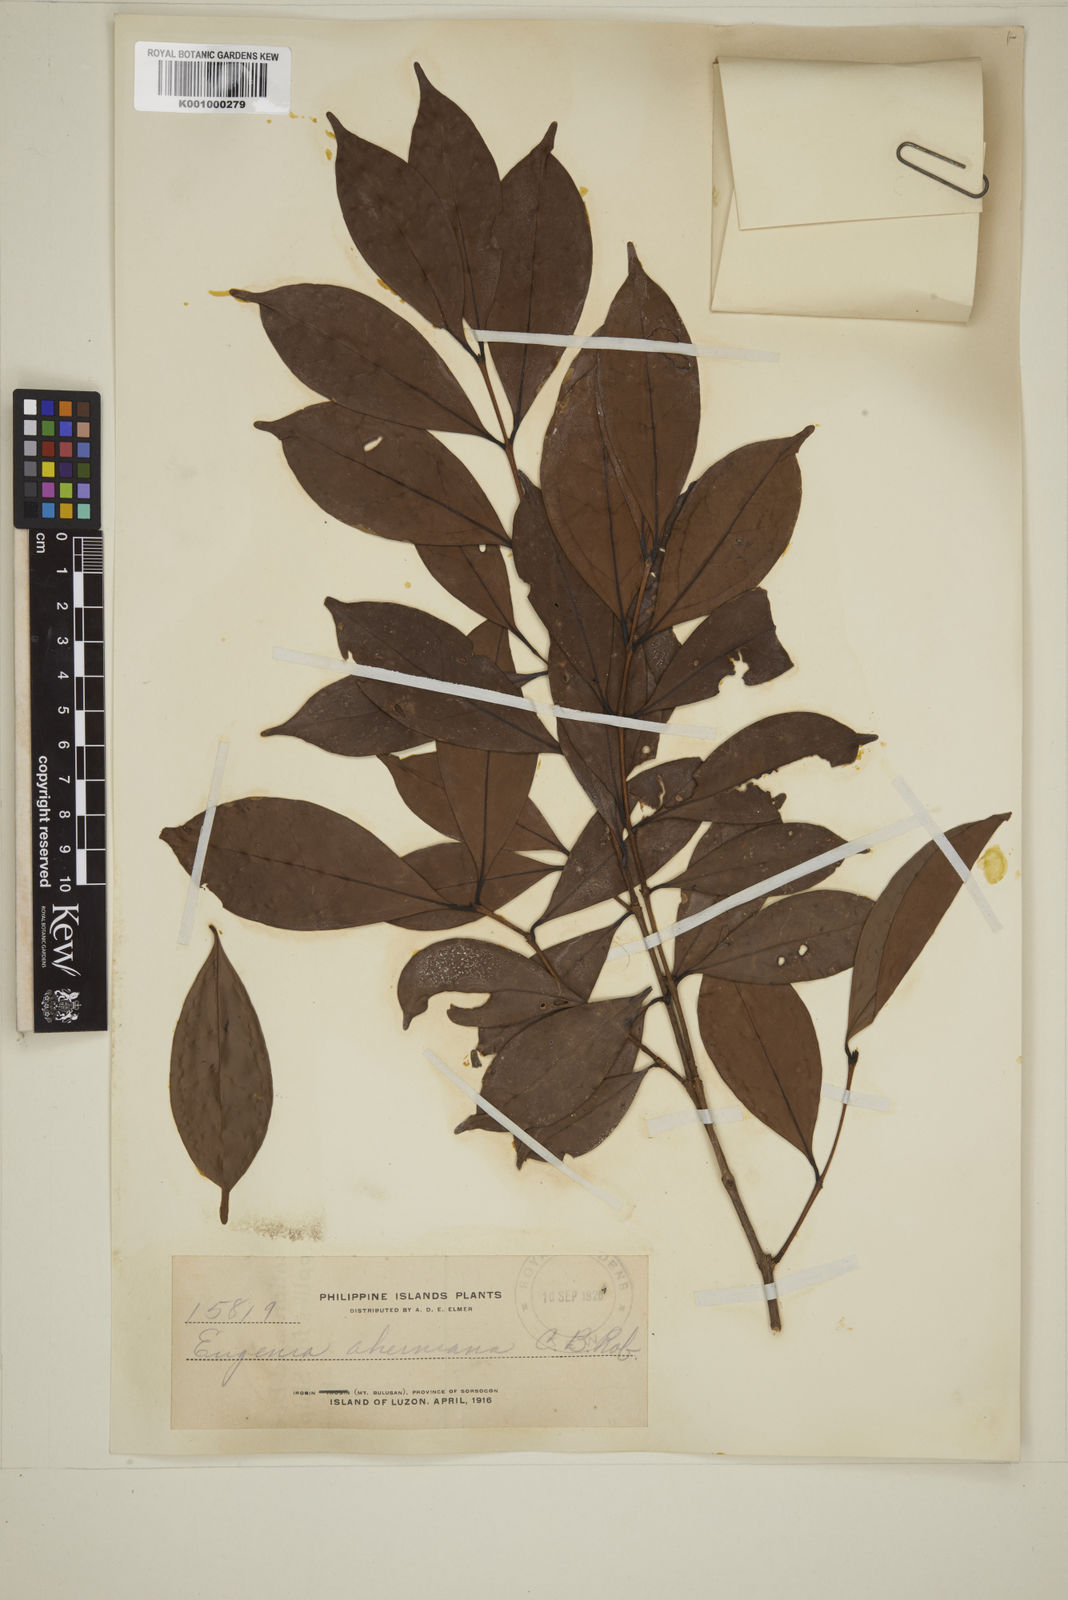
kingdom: Plantae
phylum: Tracheophyta
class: Magnoliopsida
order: Myrtales
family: Myrtaceae
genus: Eugenia
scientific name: Eugenia aherniana
